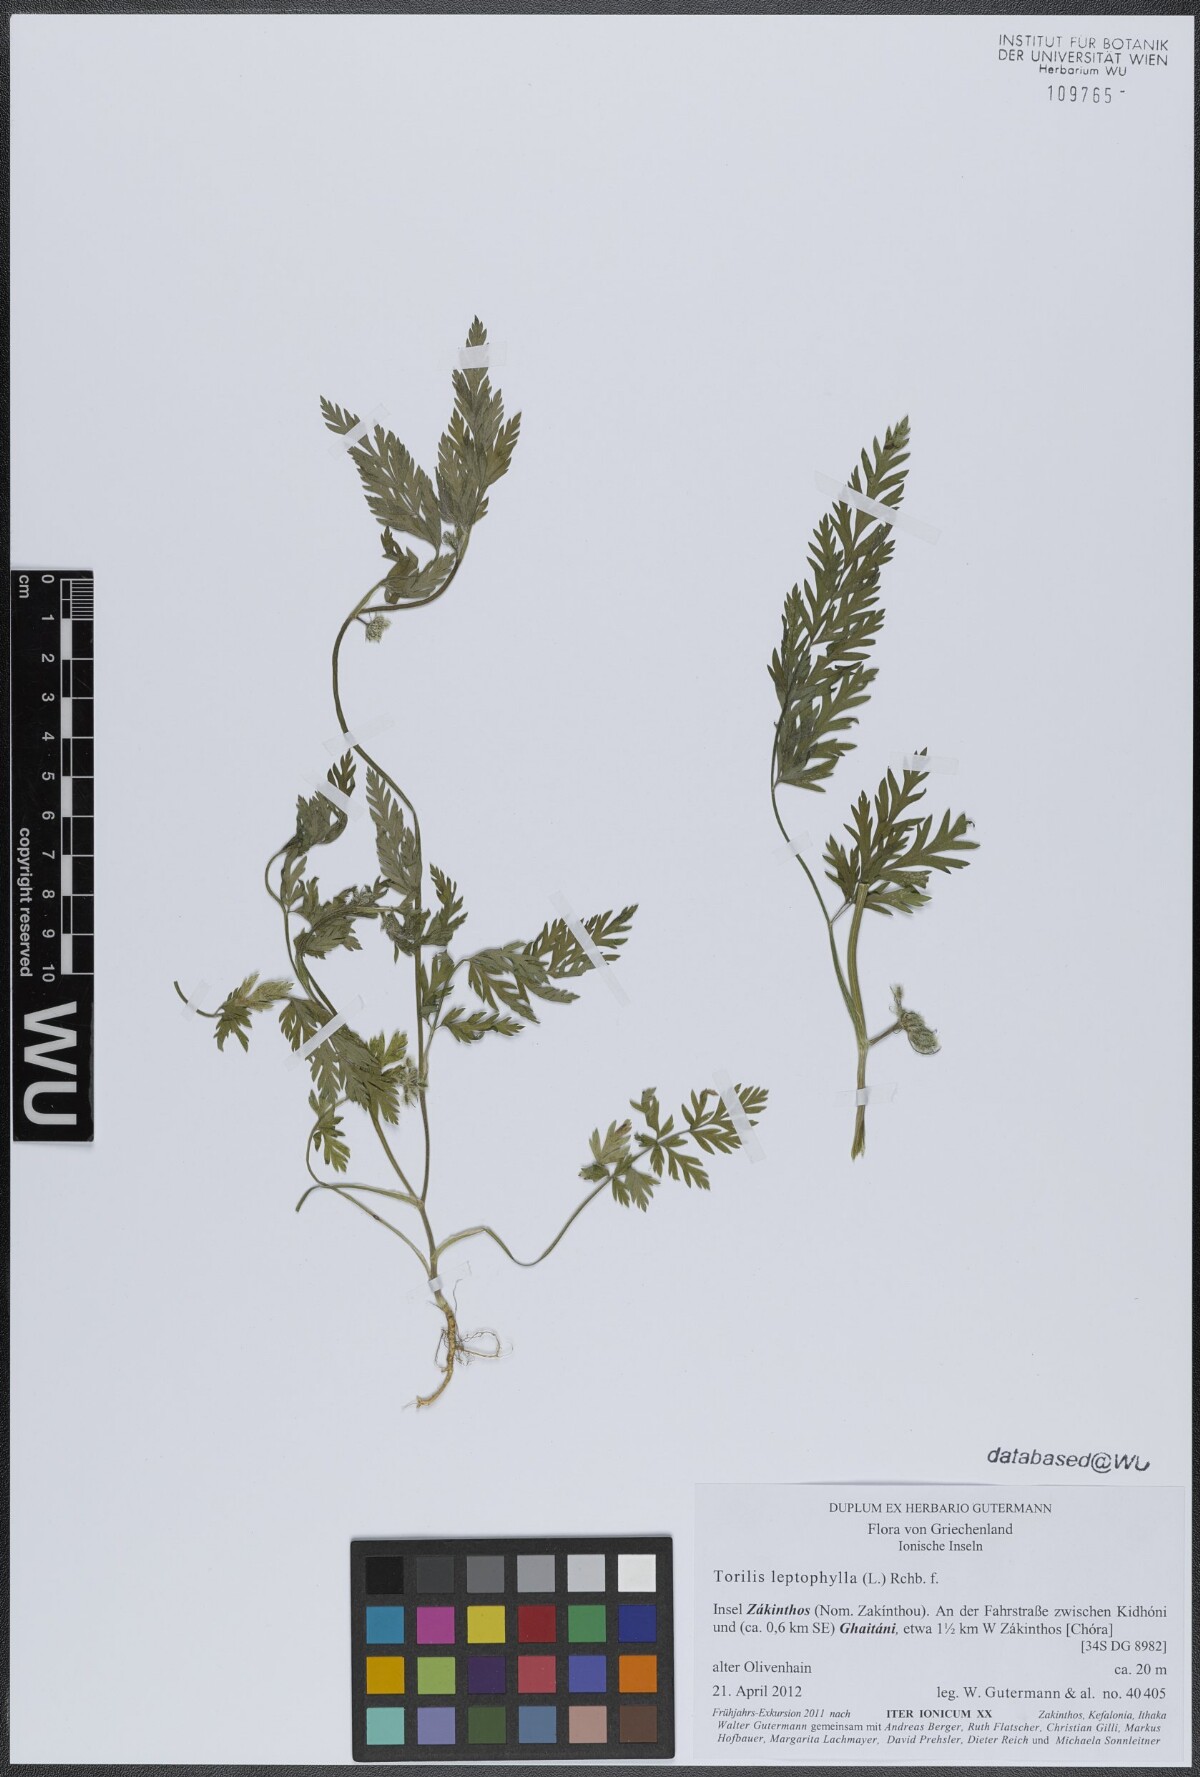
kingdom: Plantae
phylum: Tracheophyta
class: Magnoliopsida
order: Apiales
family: Apiaceae
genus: Torilis
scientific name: Torilis leptophylla
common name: Bristlefruit hedgeparsley
